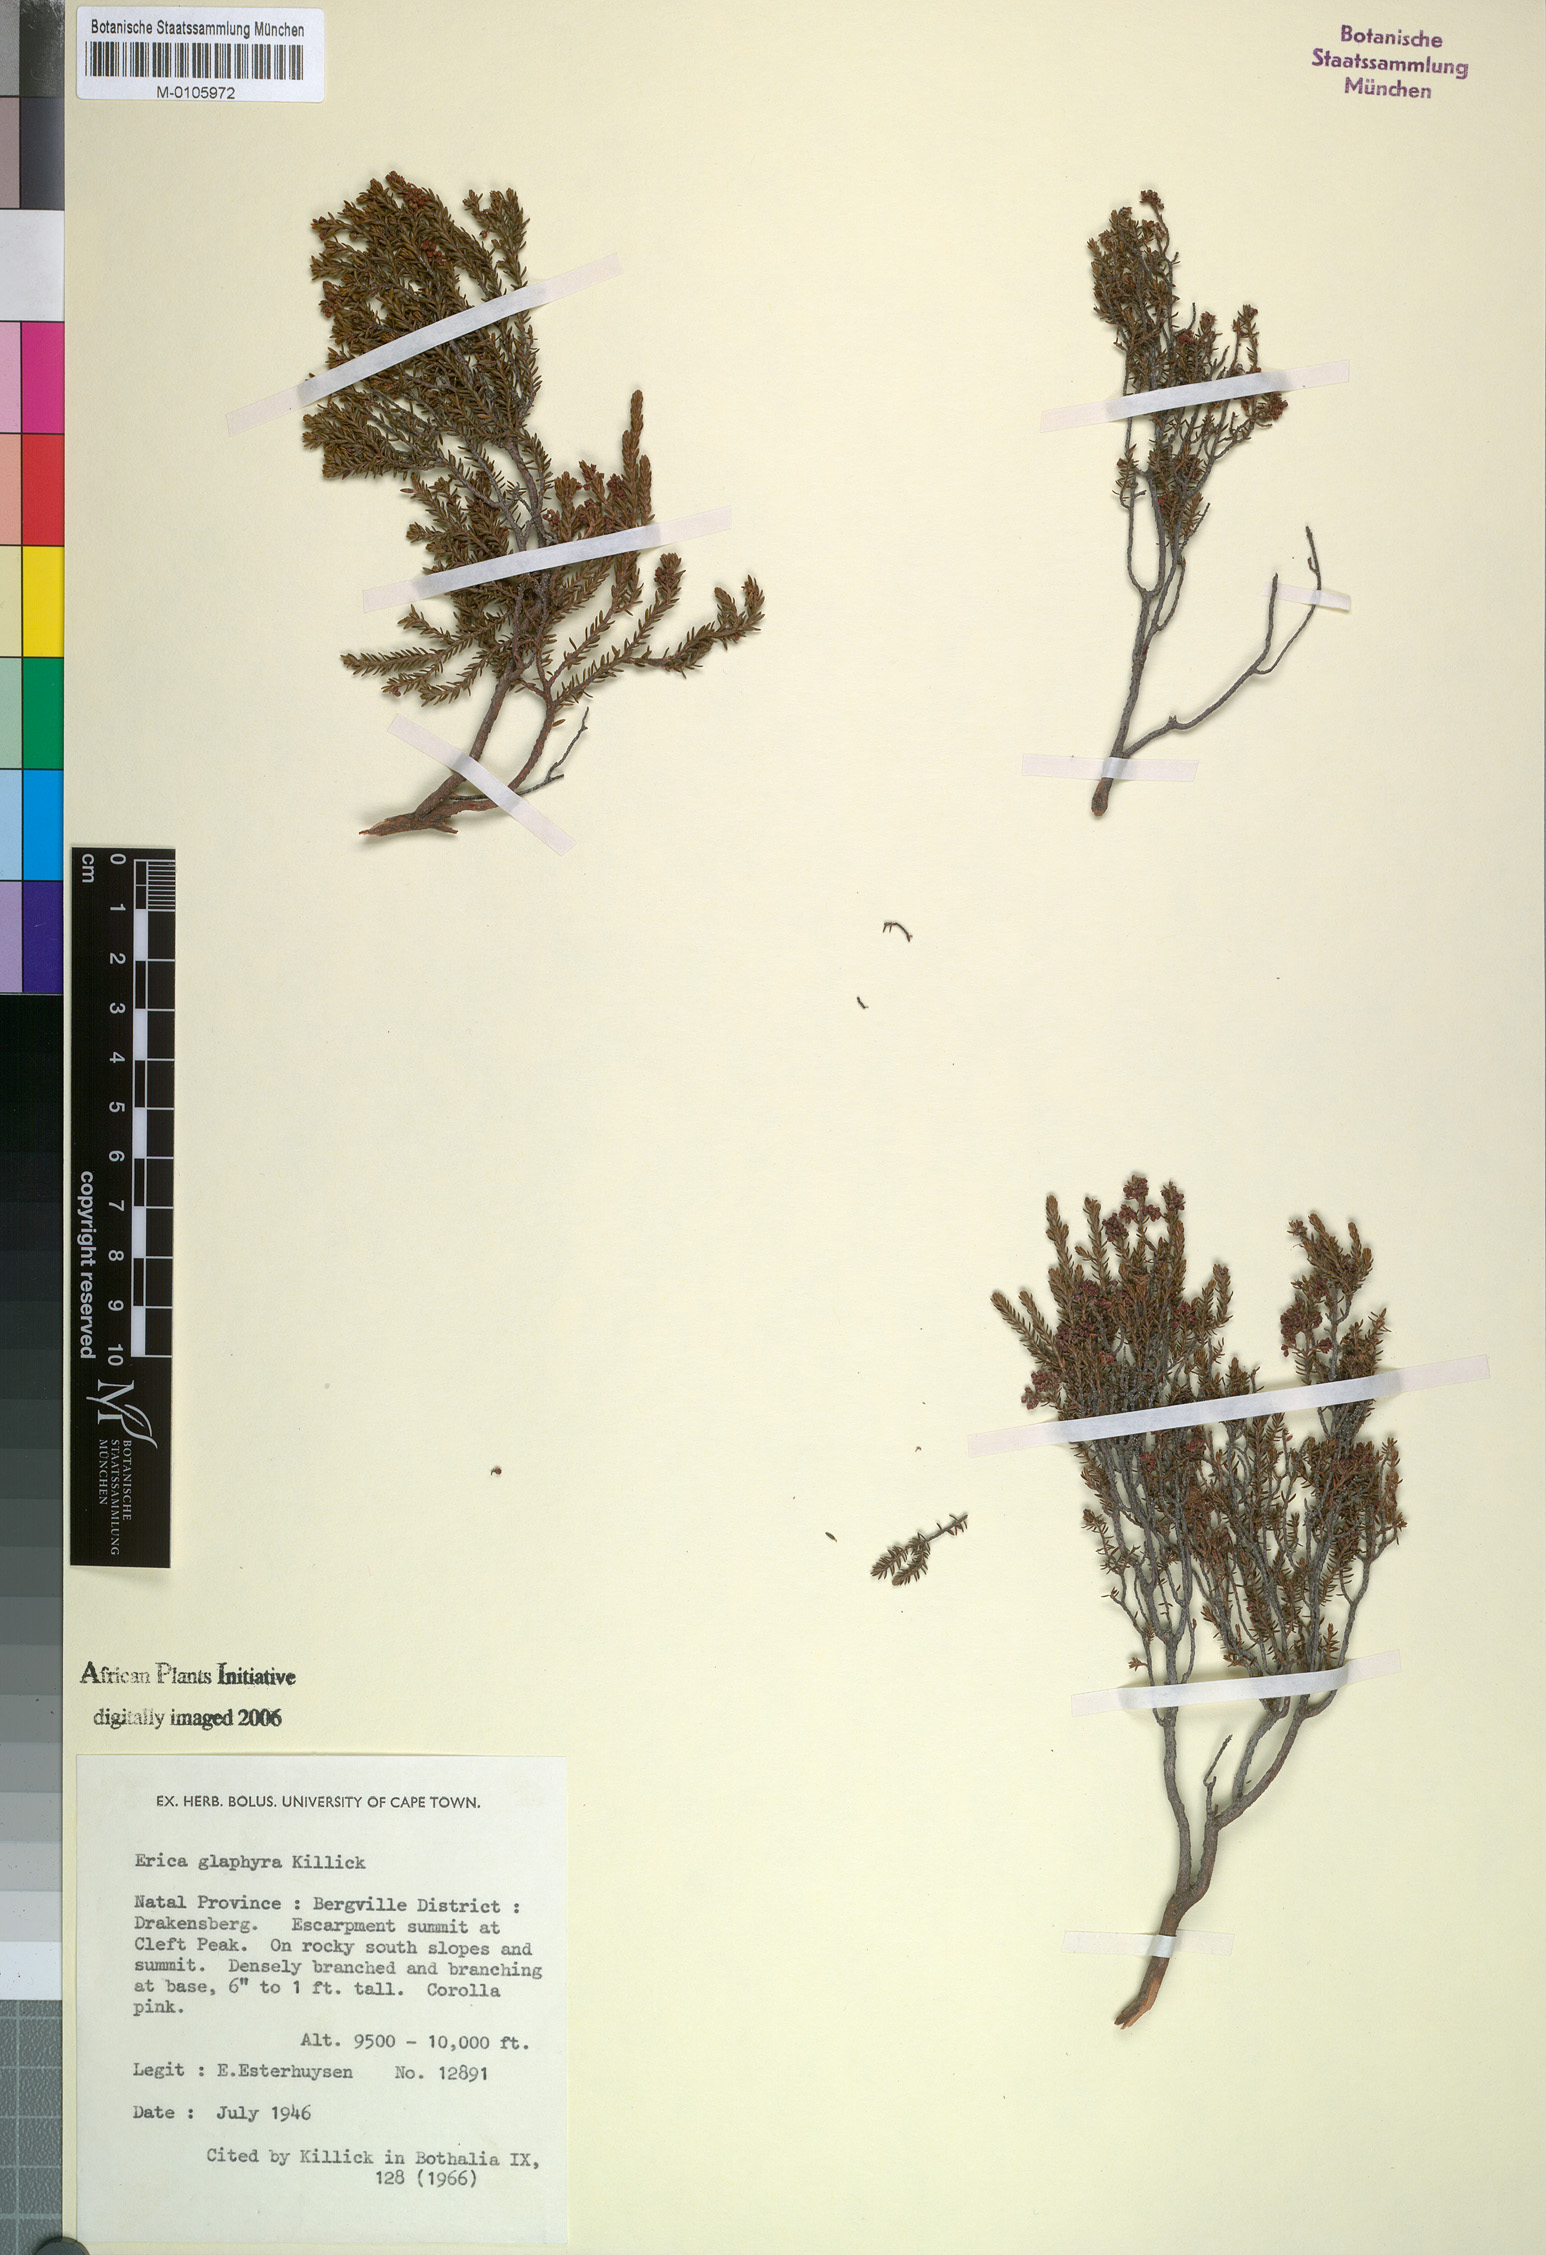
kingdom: Plantae
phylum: Tracheophyta
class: Magnoliopsida
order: Ericales
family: Ericaceae
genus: Erica
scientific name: Erica glaphyra
